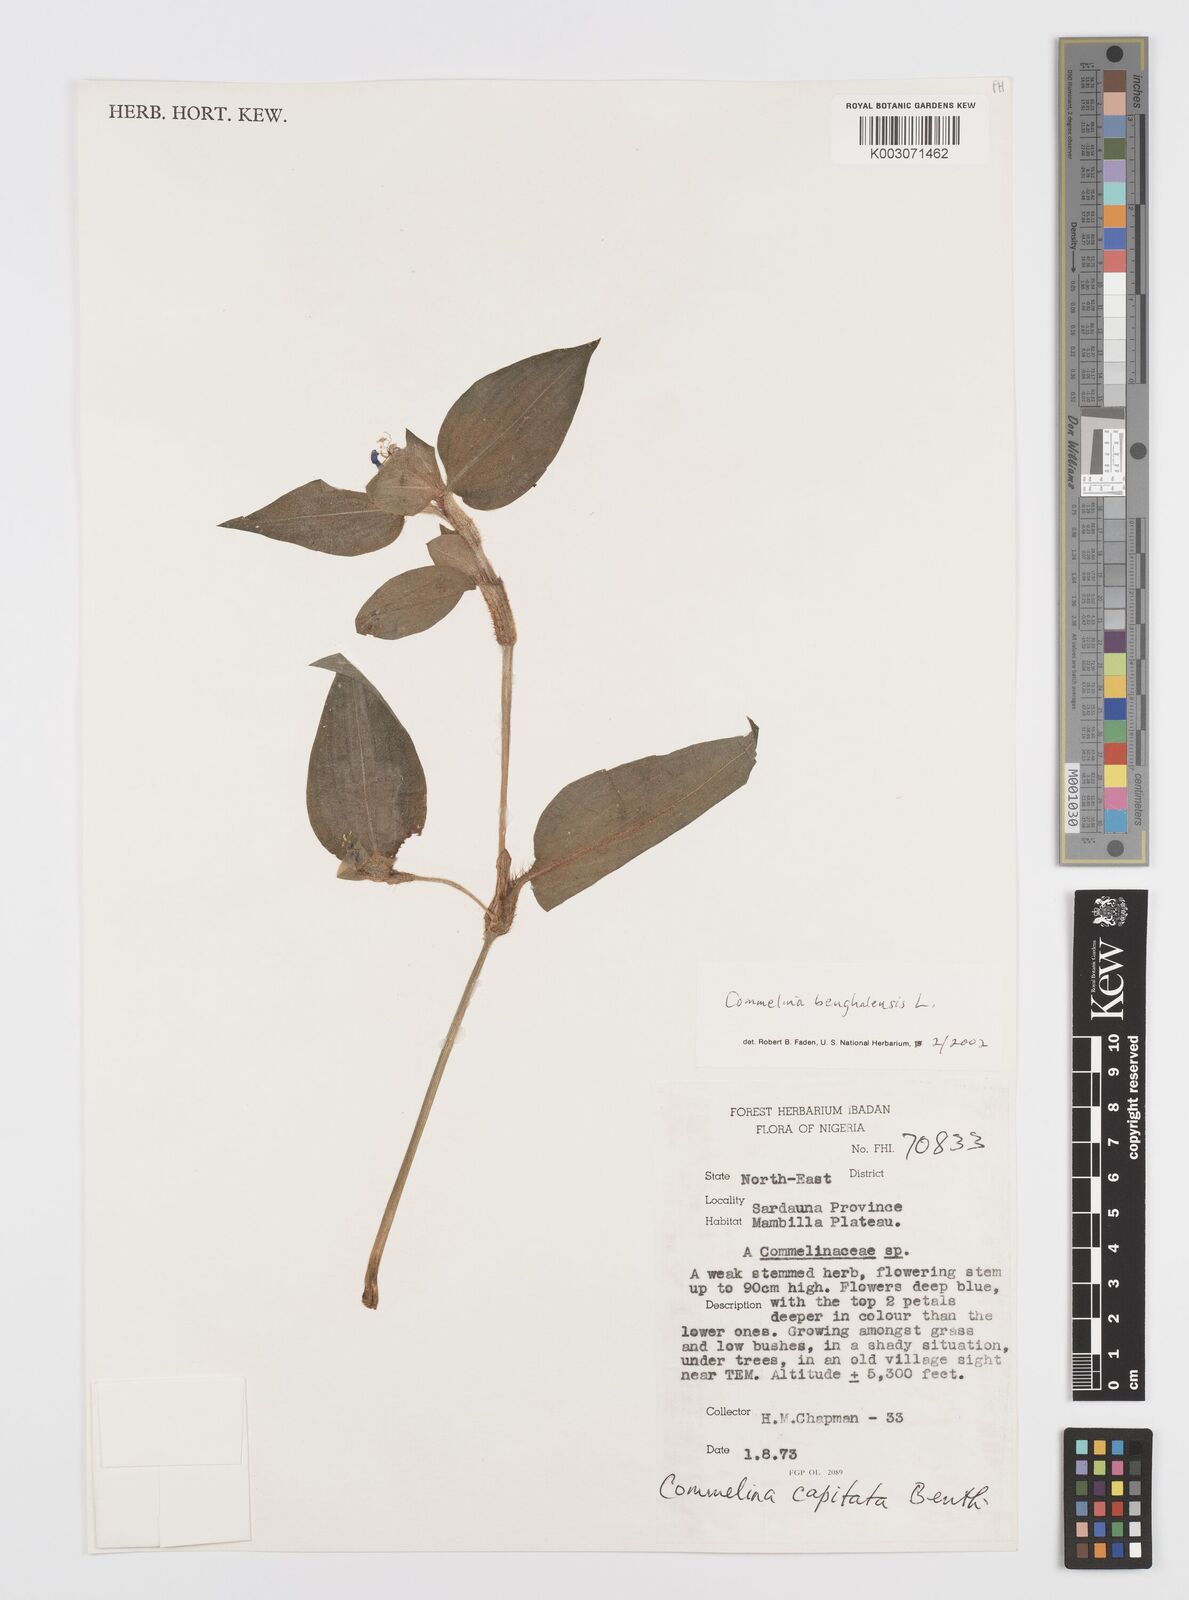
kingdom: Plantae
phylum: Tracheophyta
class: Liliopsida
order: Commelinales
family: Commelinaceae
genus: Commelina
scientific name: Commelina africana
